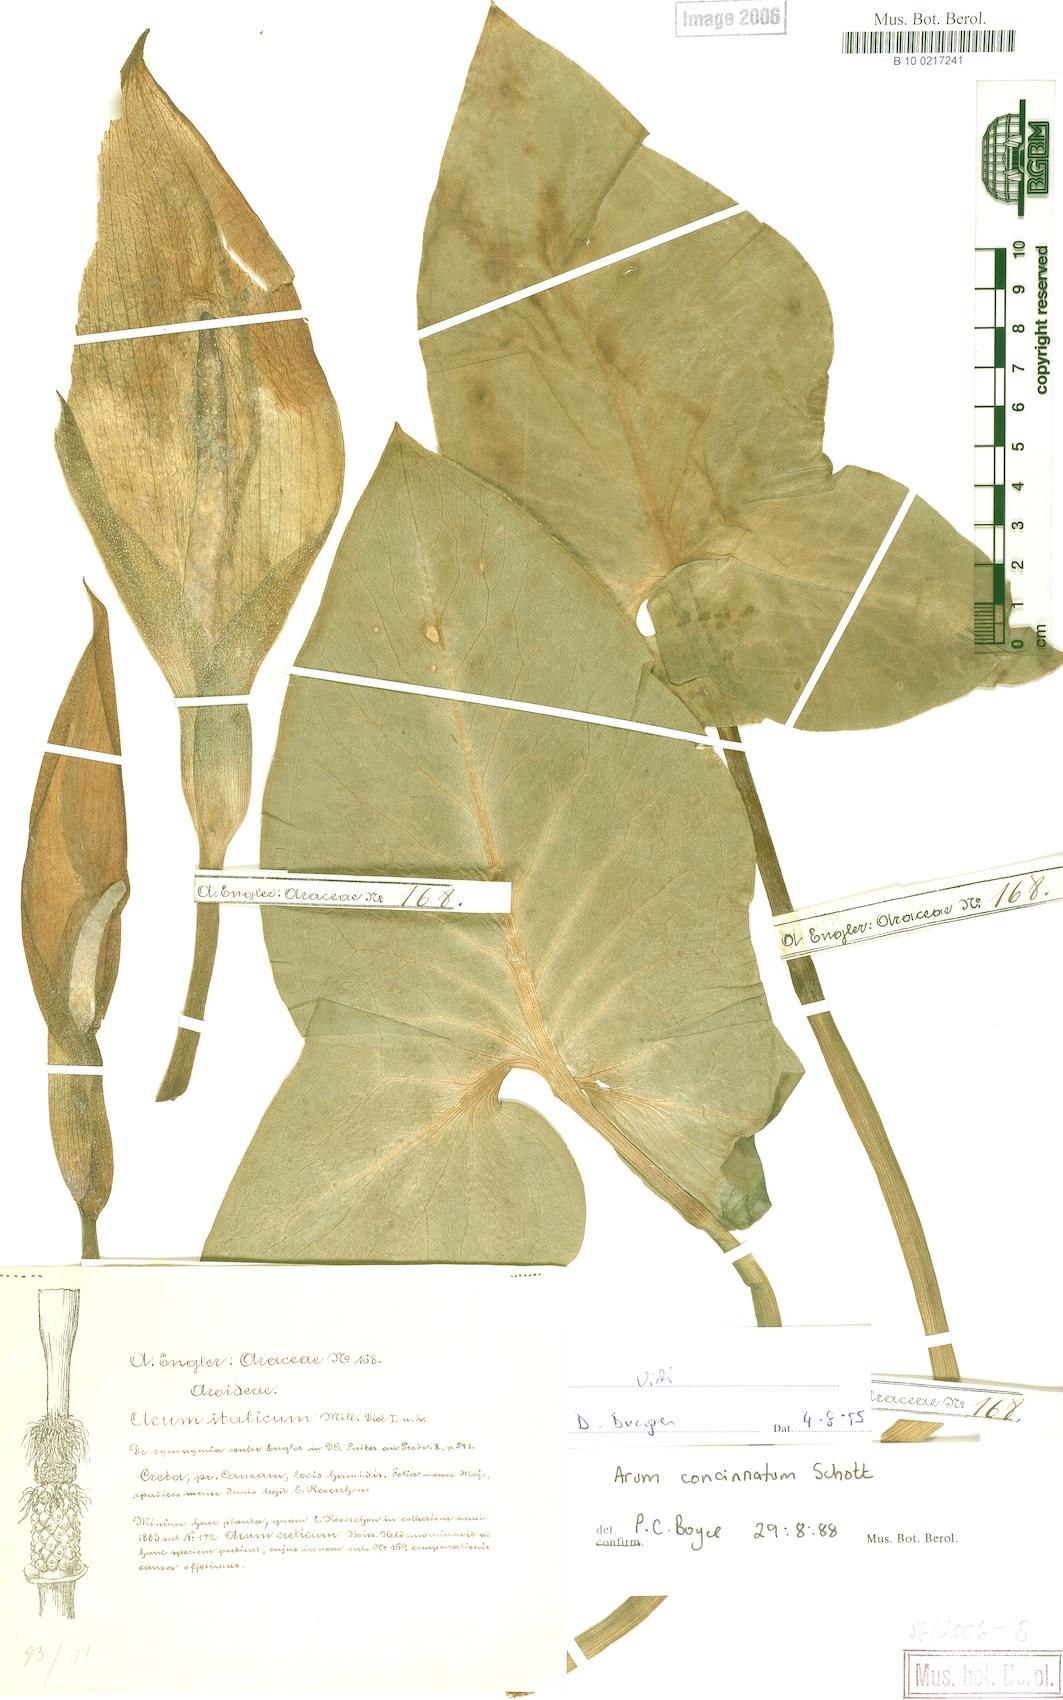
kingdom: Plantae
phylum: Tracheophyta
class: Liliopsida
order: Alismatales
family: Araceae
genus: Arum
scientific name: Arum concinnatum
